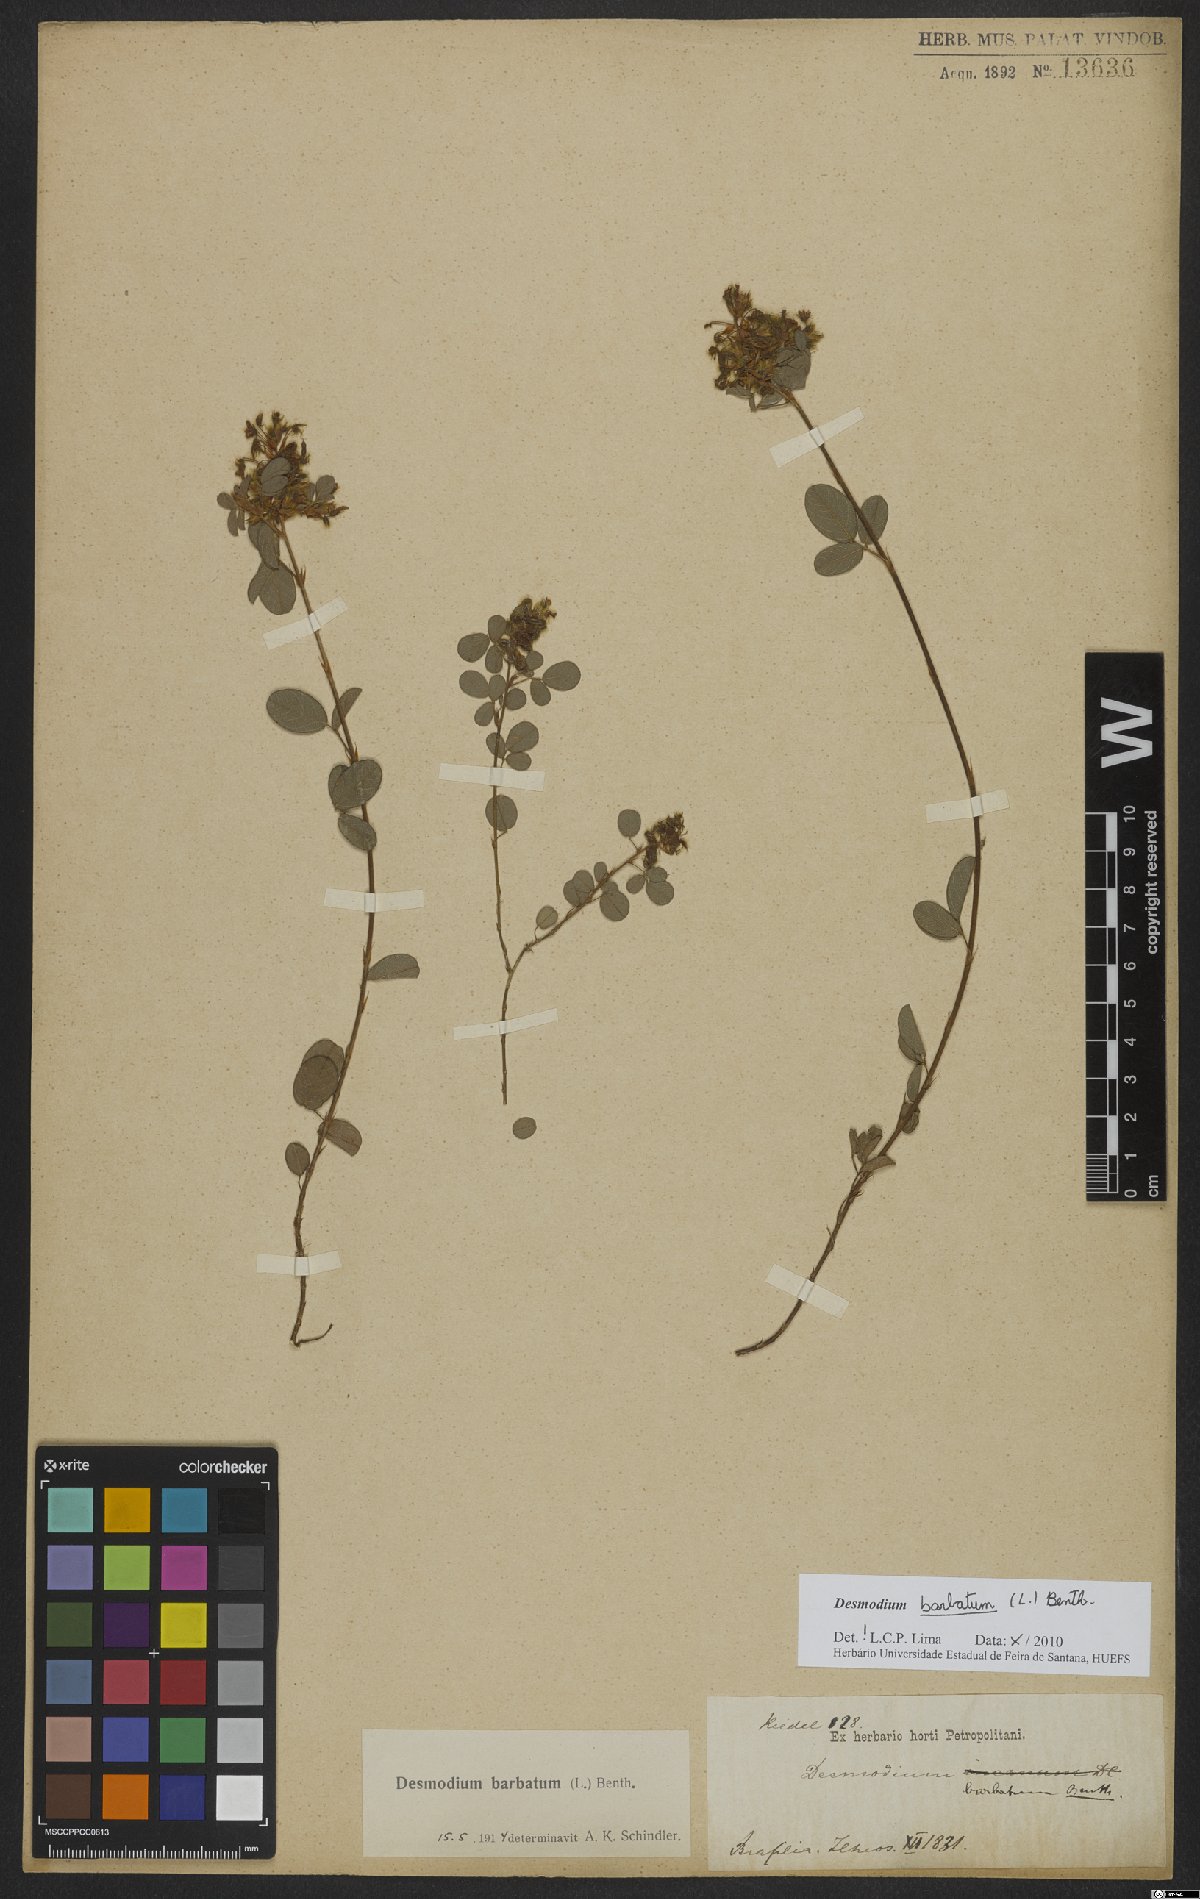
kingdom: Plantae
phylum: Tracheophyta
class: Magnoliopsida
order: Fabales
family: Fabaceae
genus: Grona
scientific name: Grona barbata
